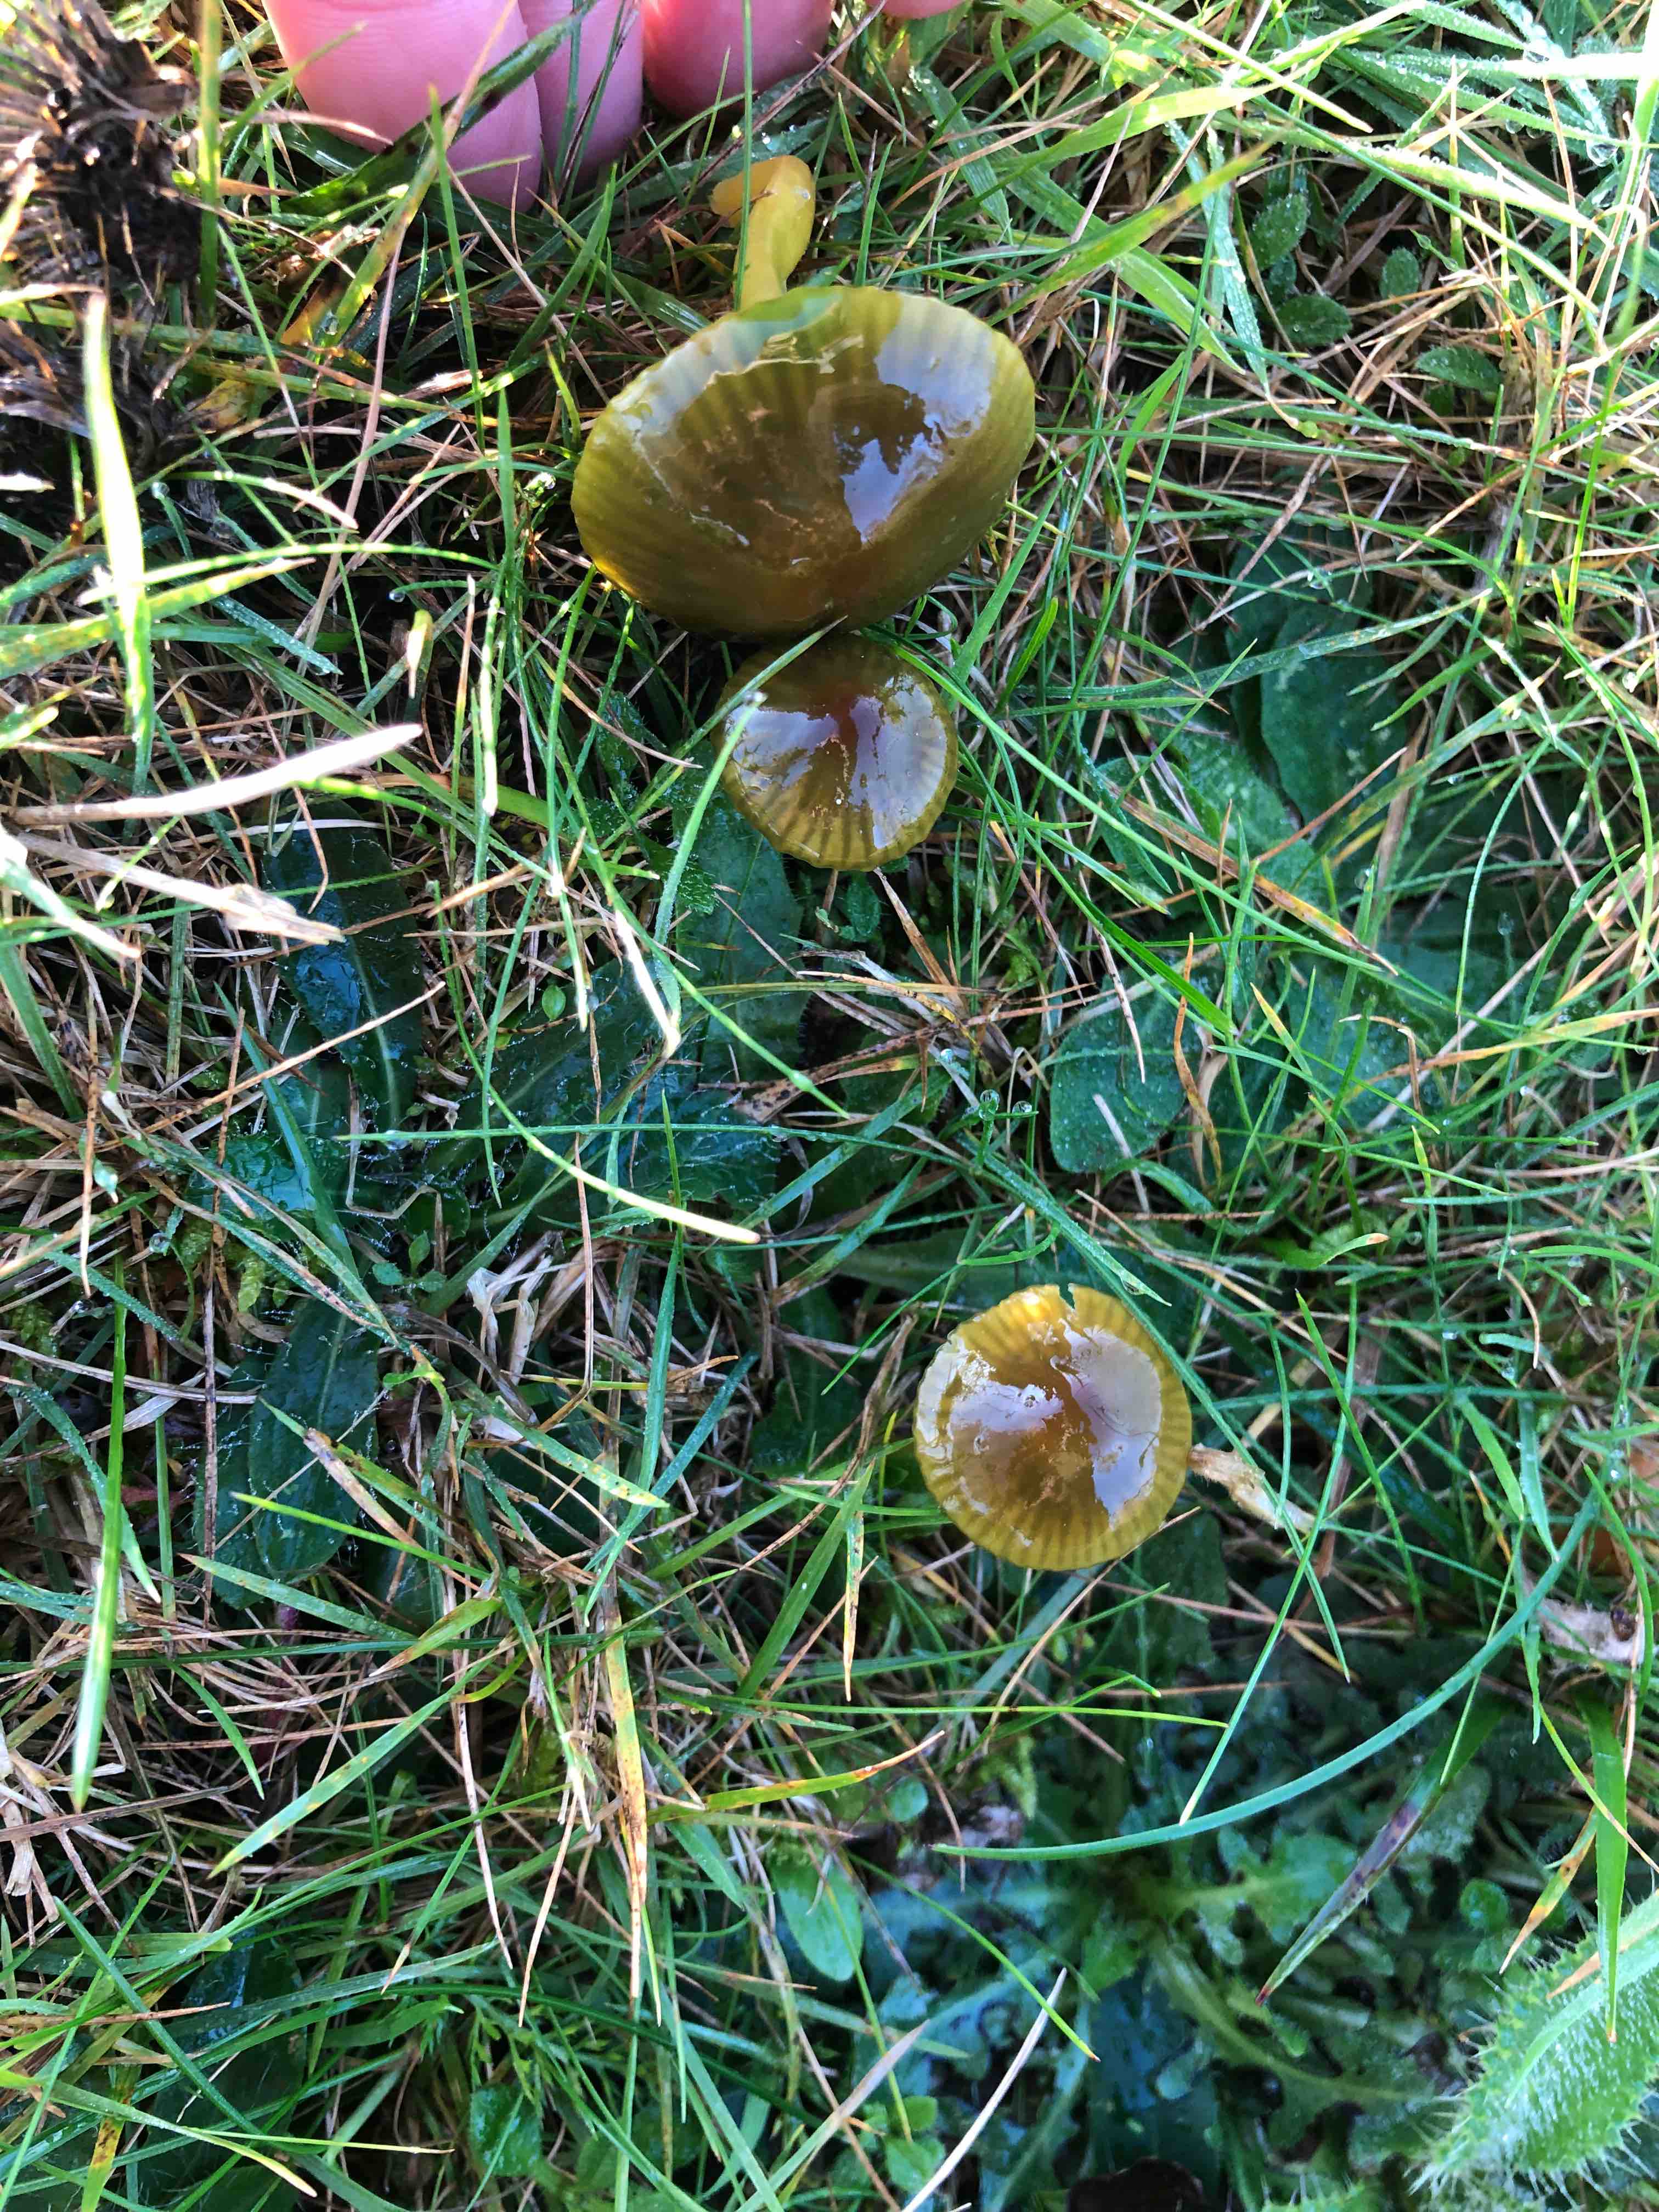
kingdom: Fungi
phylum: Basidiomycota
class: Agaricomycetes
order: Agaricales
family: Hygrophoraceae
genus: Gliophorus
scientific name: Gliophorus psittacinus
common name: papegøje-vokshat
